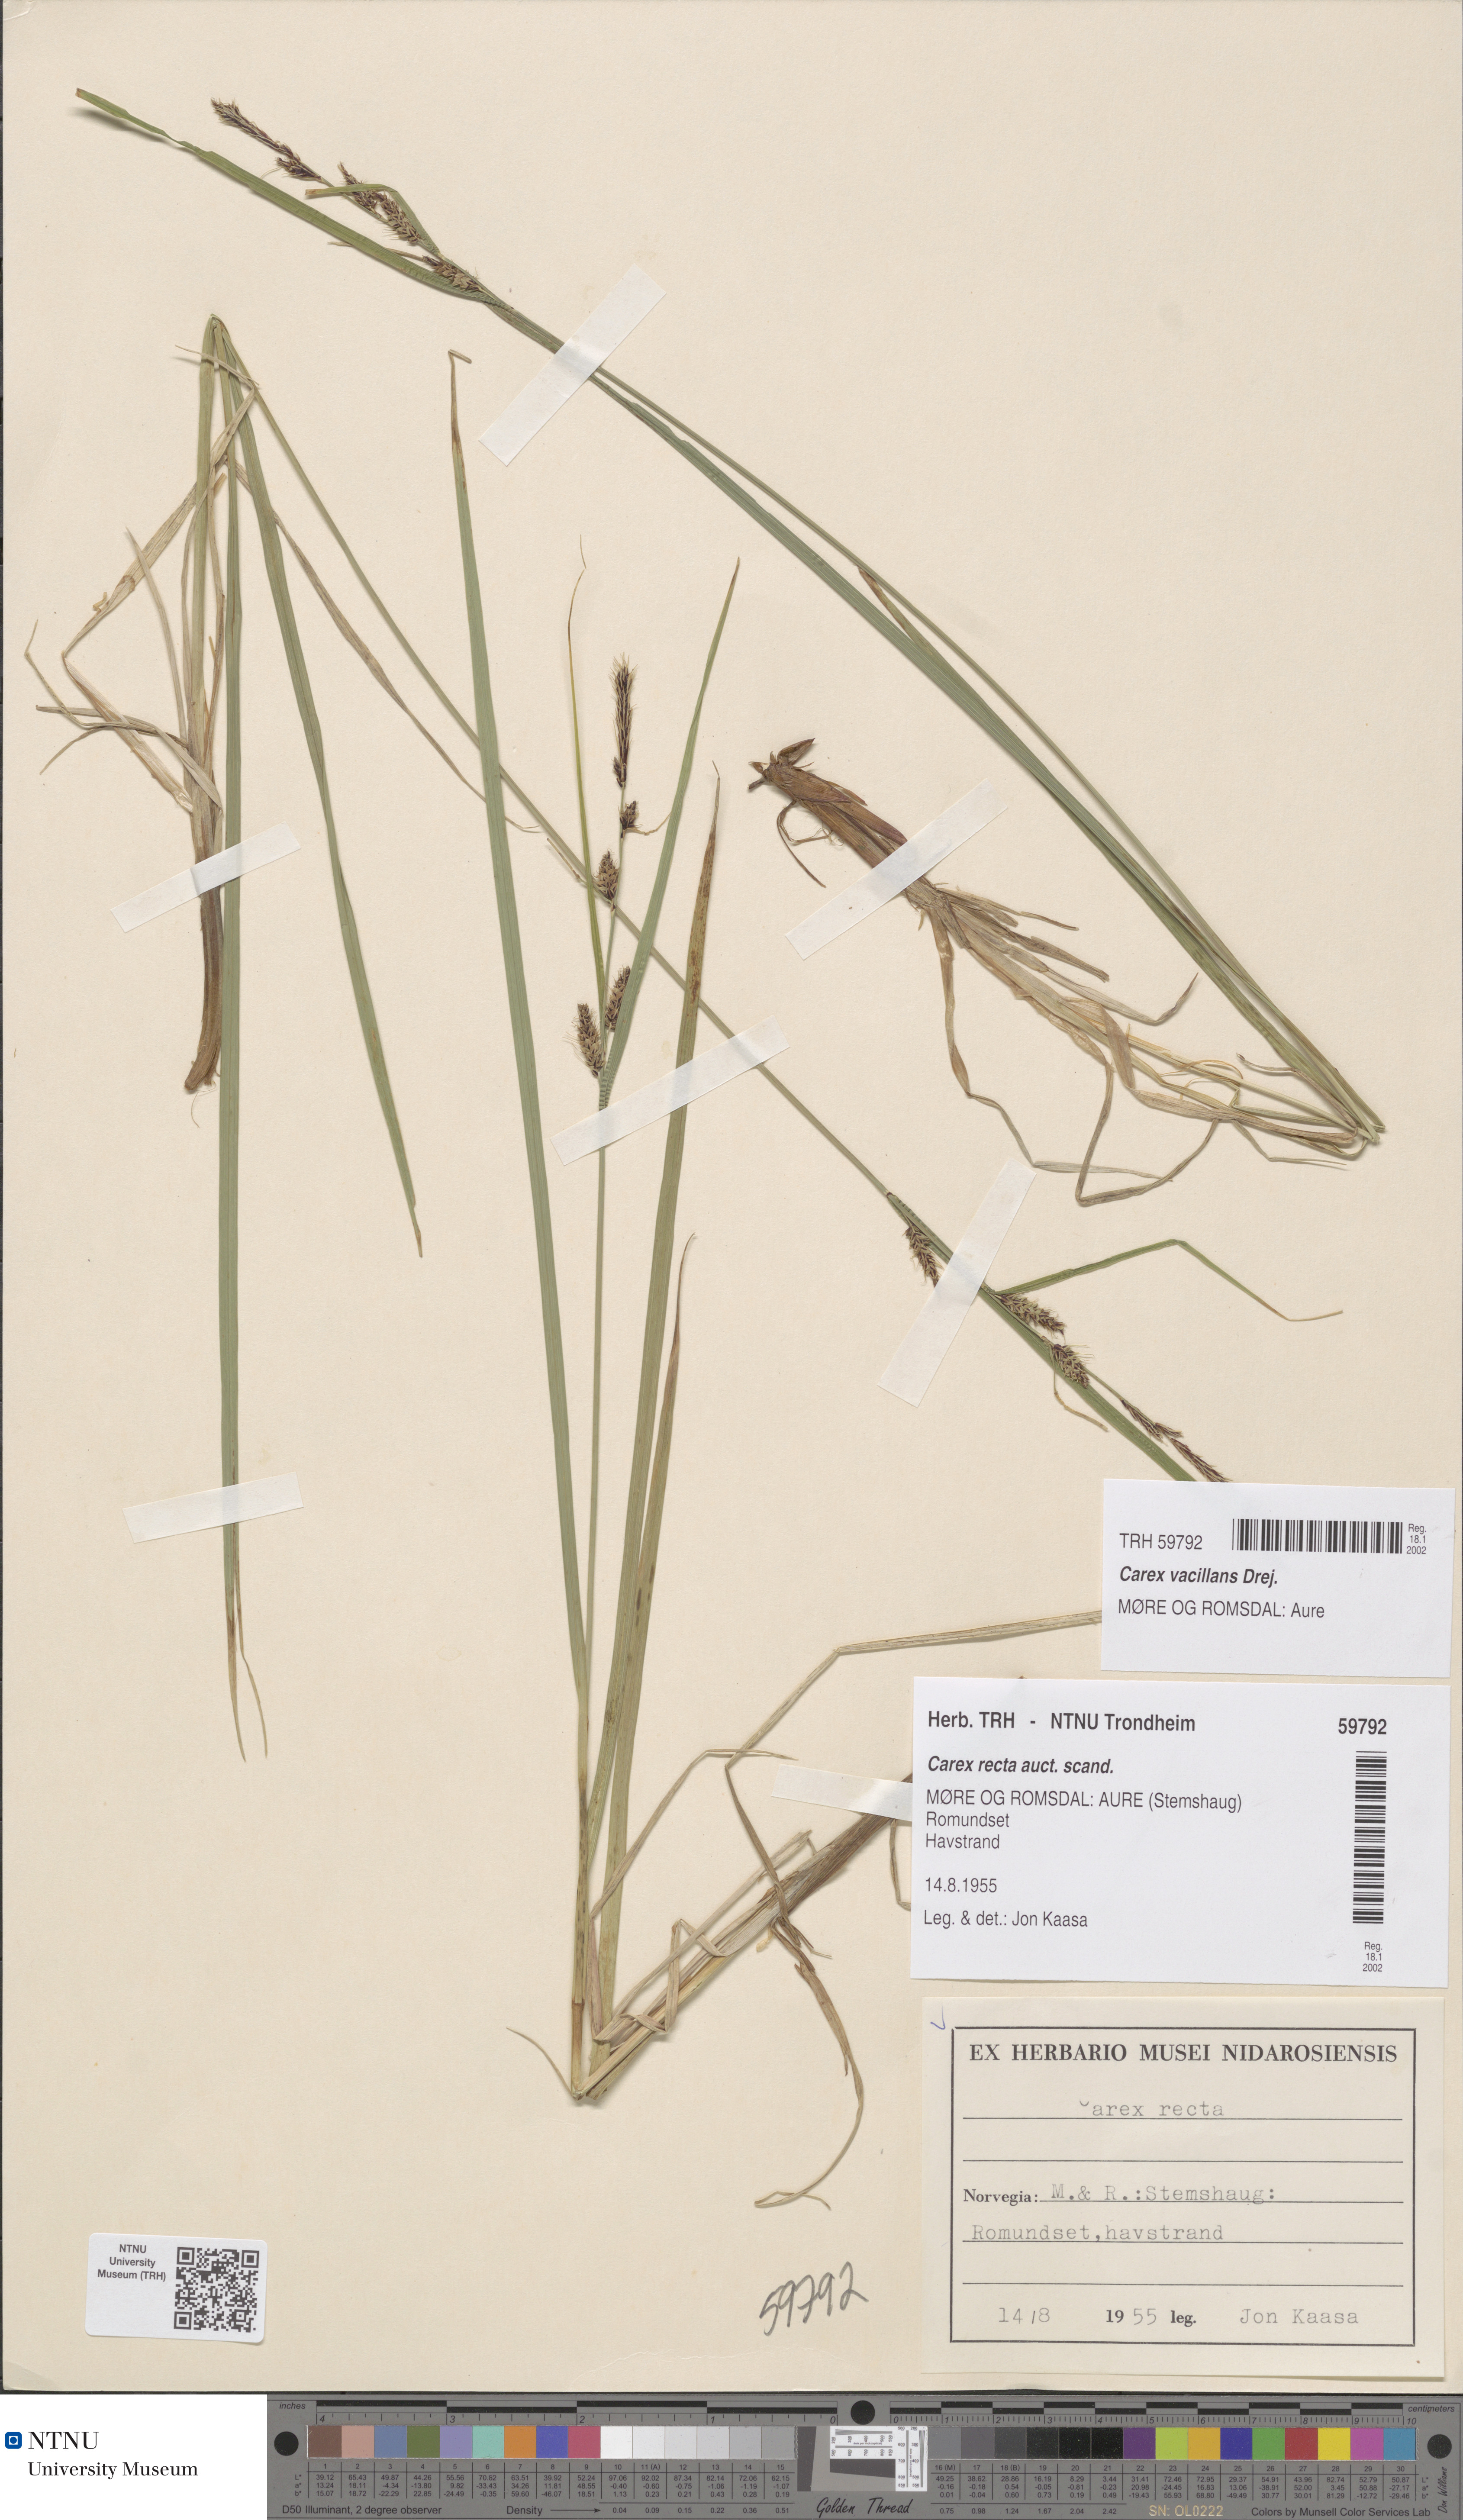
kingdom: Plantae
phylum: Tracheophyta
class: Liliopsida
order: Poales
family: Cyperaceae
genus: Carex
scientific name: Carex vacillans
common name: Sedge
